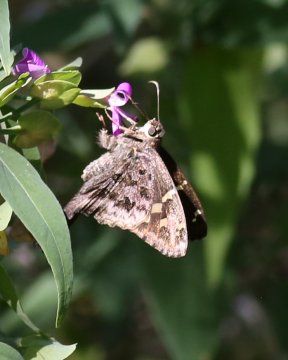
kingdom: Animalia
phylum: Arthropoda
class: Insecta
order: Lepidoptera
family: Hesperiidae
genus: Urbanus
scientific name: Urbanus dorantes
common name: Dorantes Longtail
